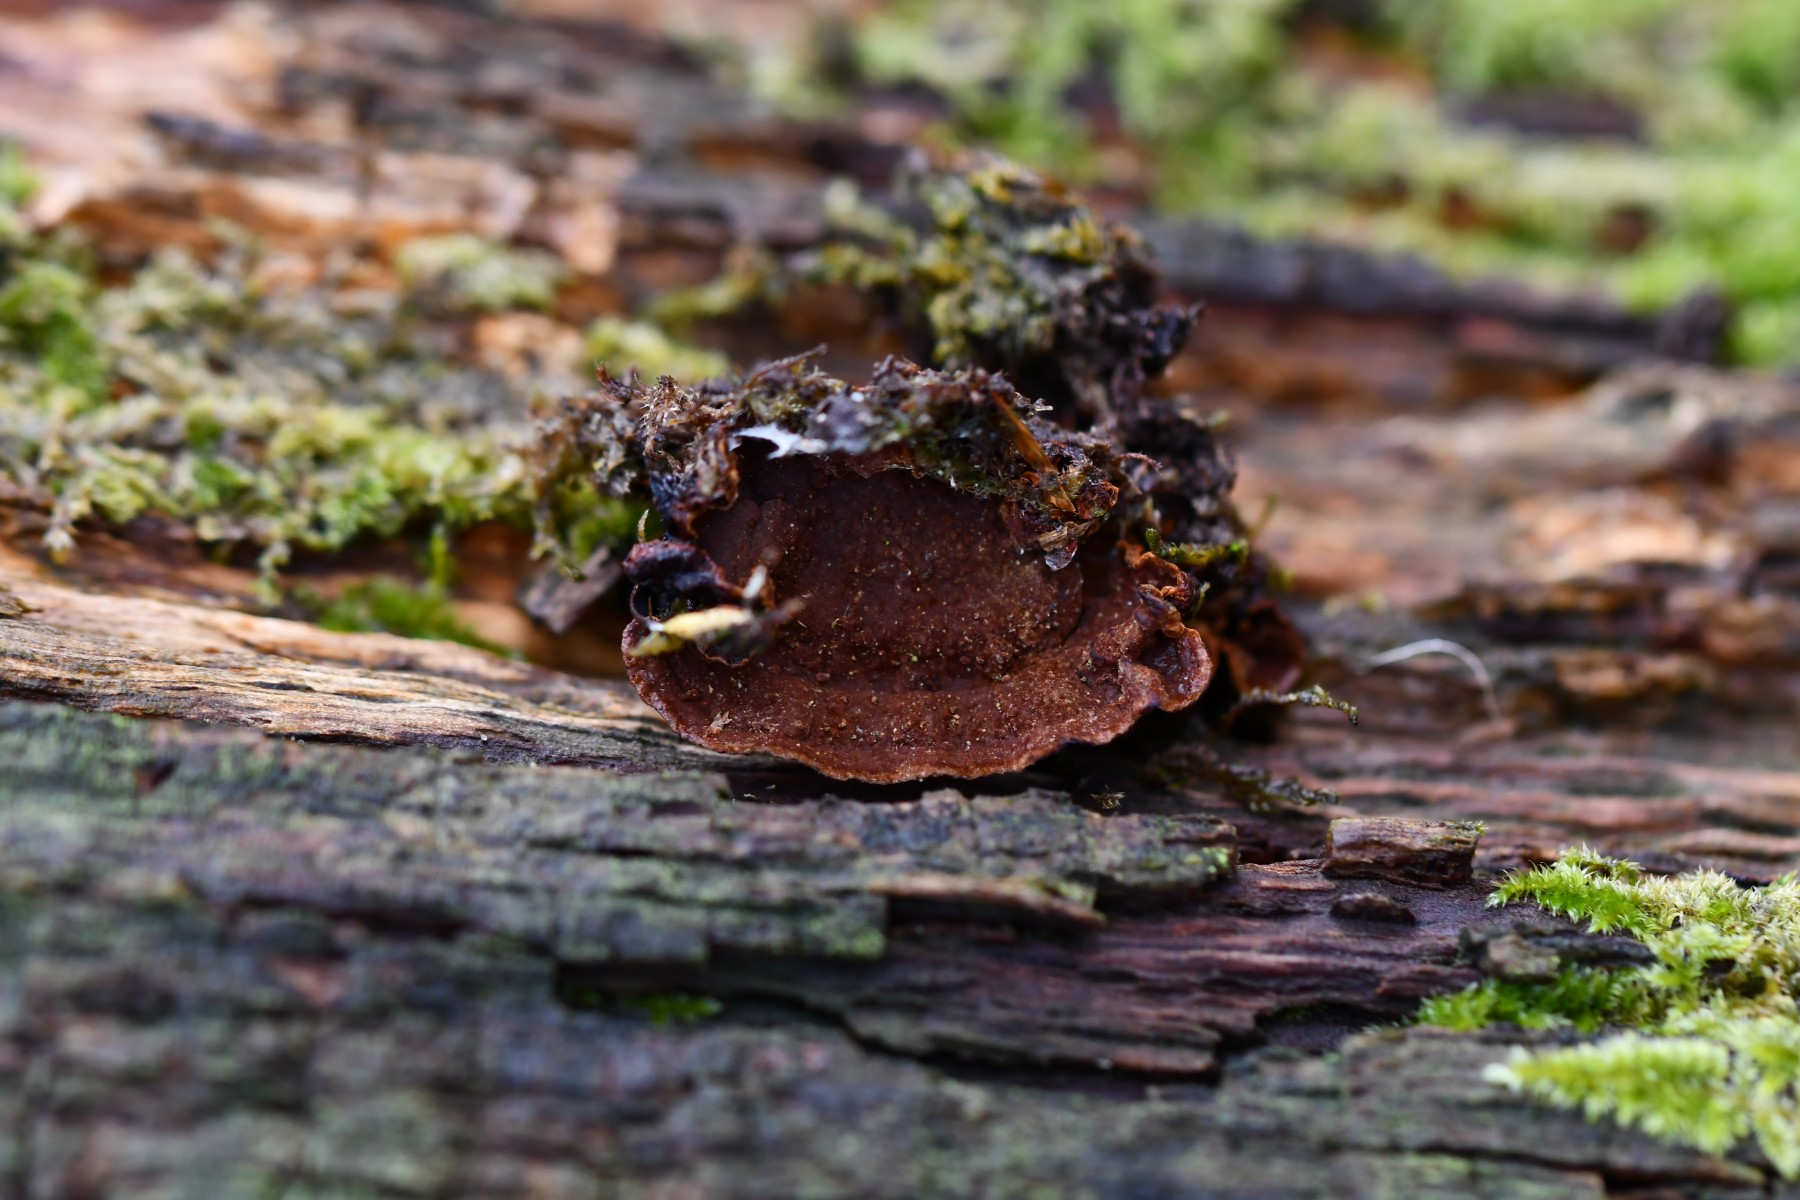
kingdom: Fungi
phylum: Basidiomycota
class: Agaricomycetes
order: Hymenochaetales
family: Hymenochaetaceae
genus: Hymenochaete
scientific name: Hymenochaete rubiginosa
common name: stiv ruslædersvamp
